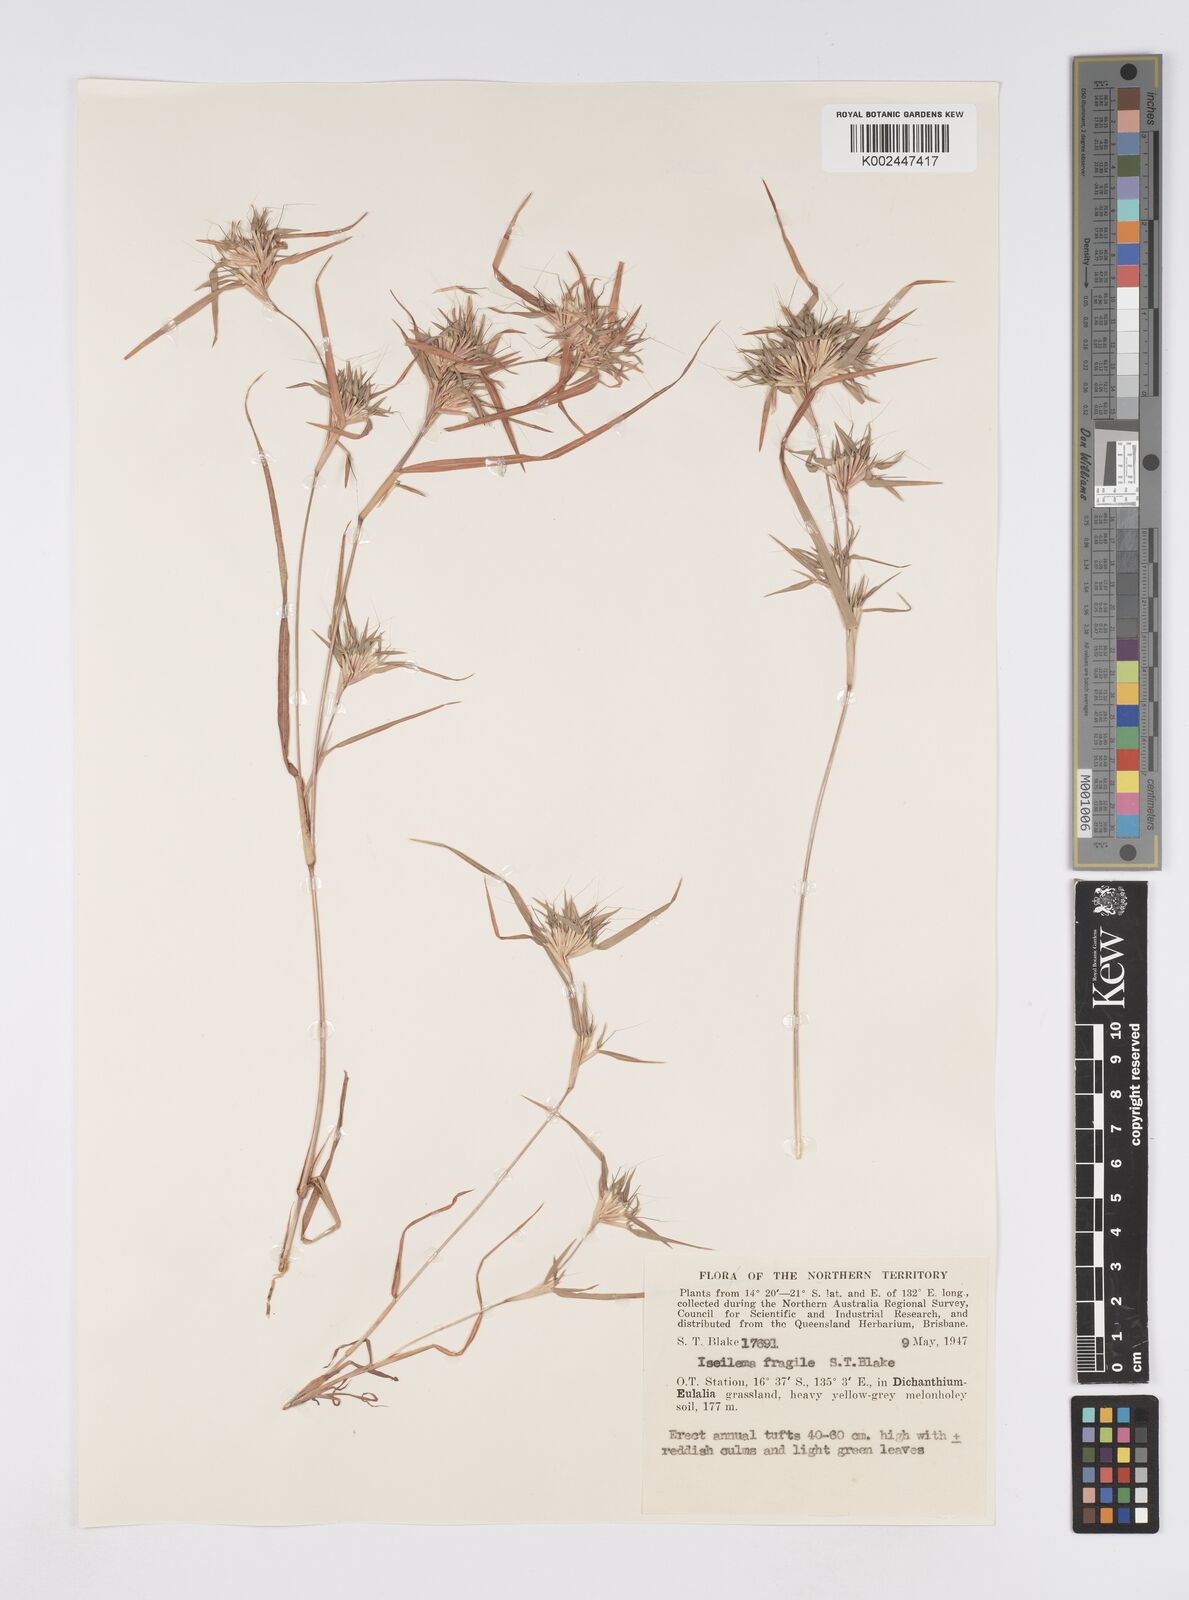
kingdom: Plantae
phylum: Tracheophyta
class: Liliopsida
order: Poales
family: Poaceae
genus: Iseilema
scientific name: Iseilema fragile
